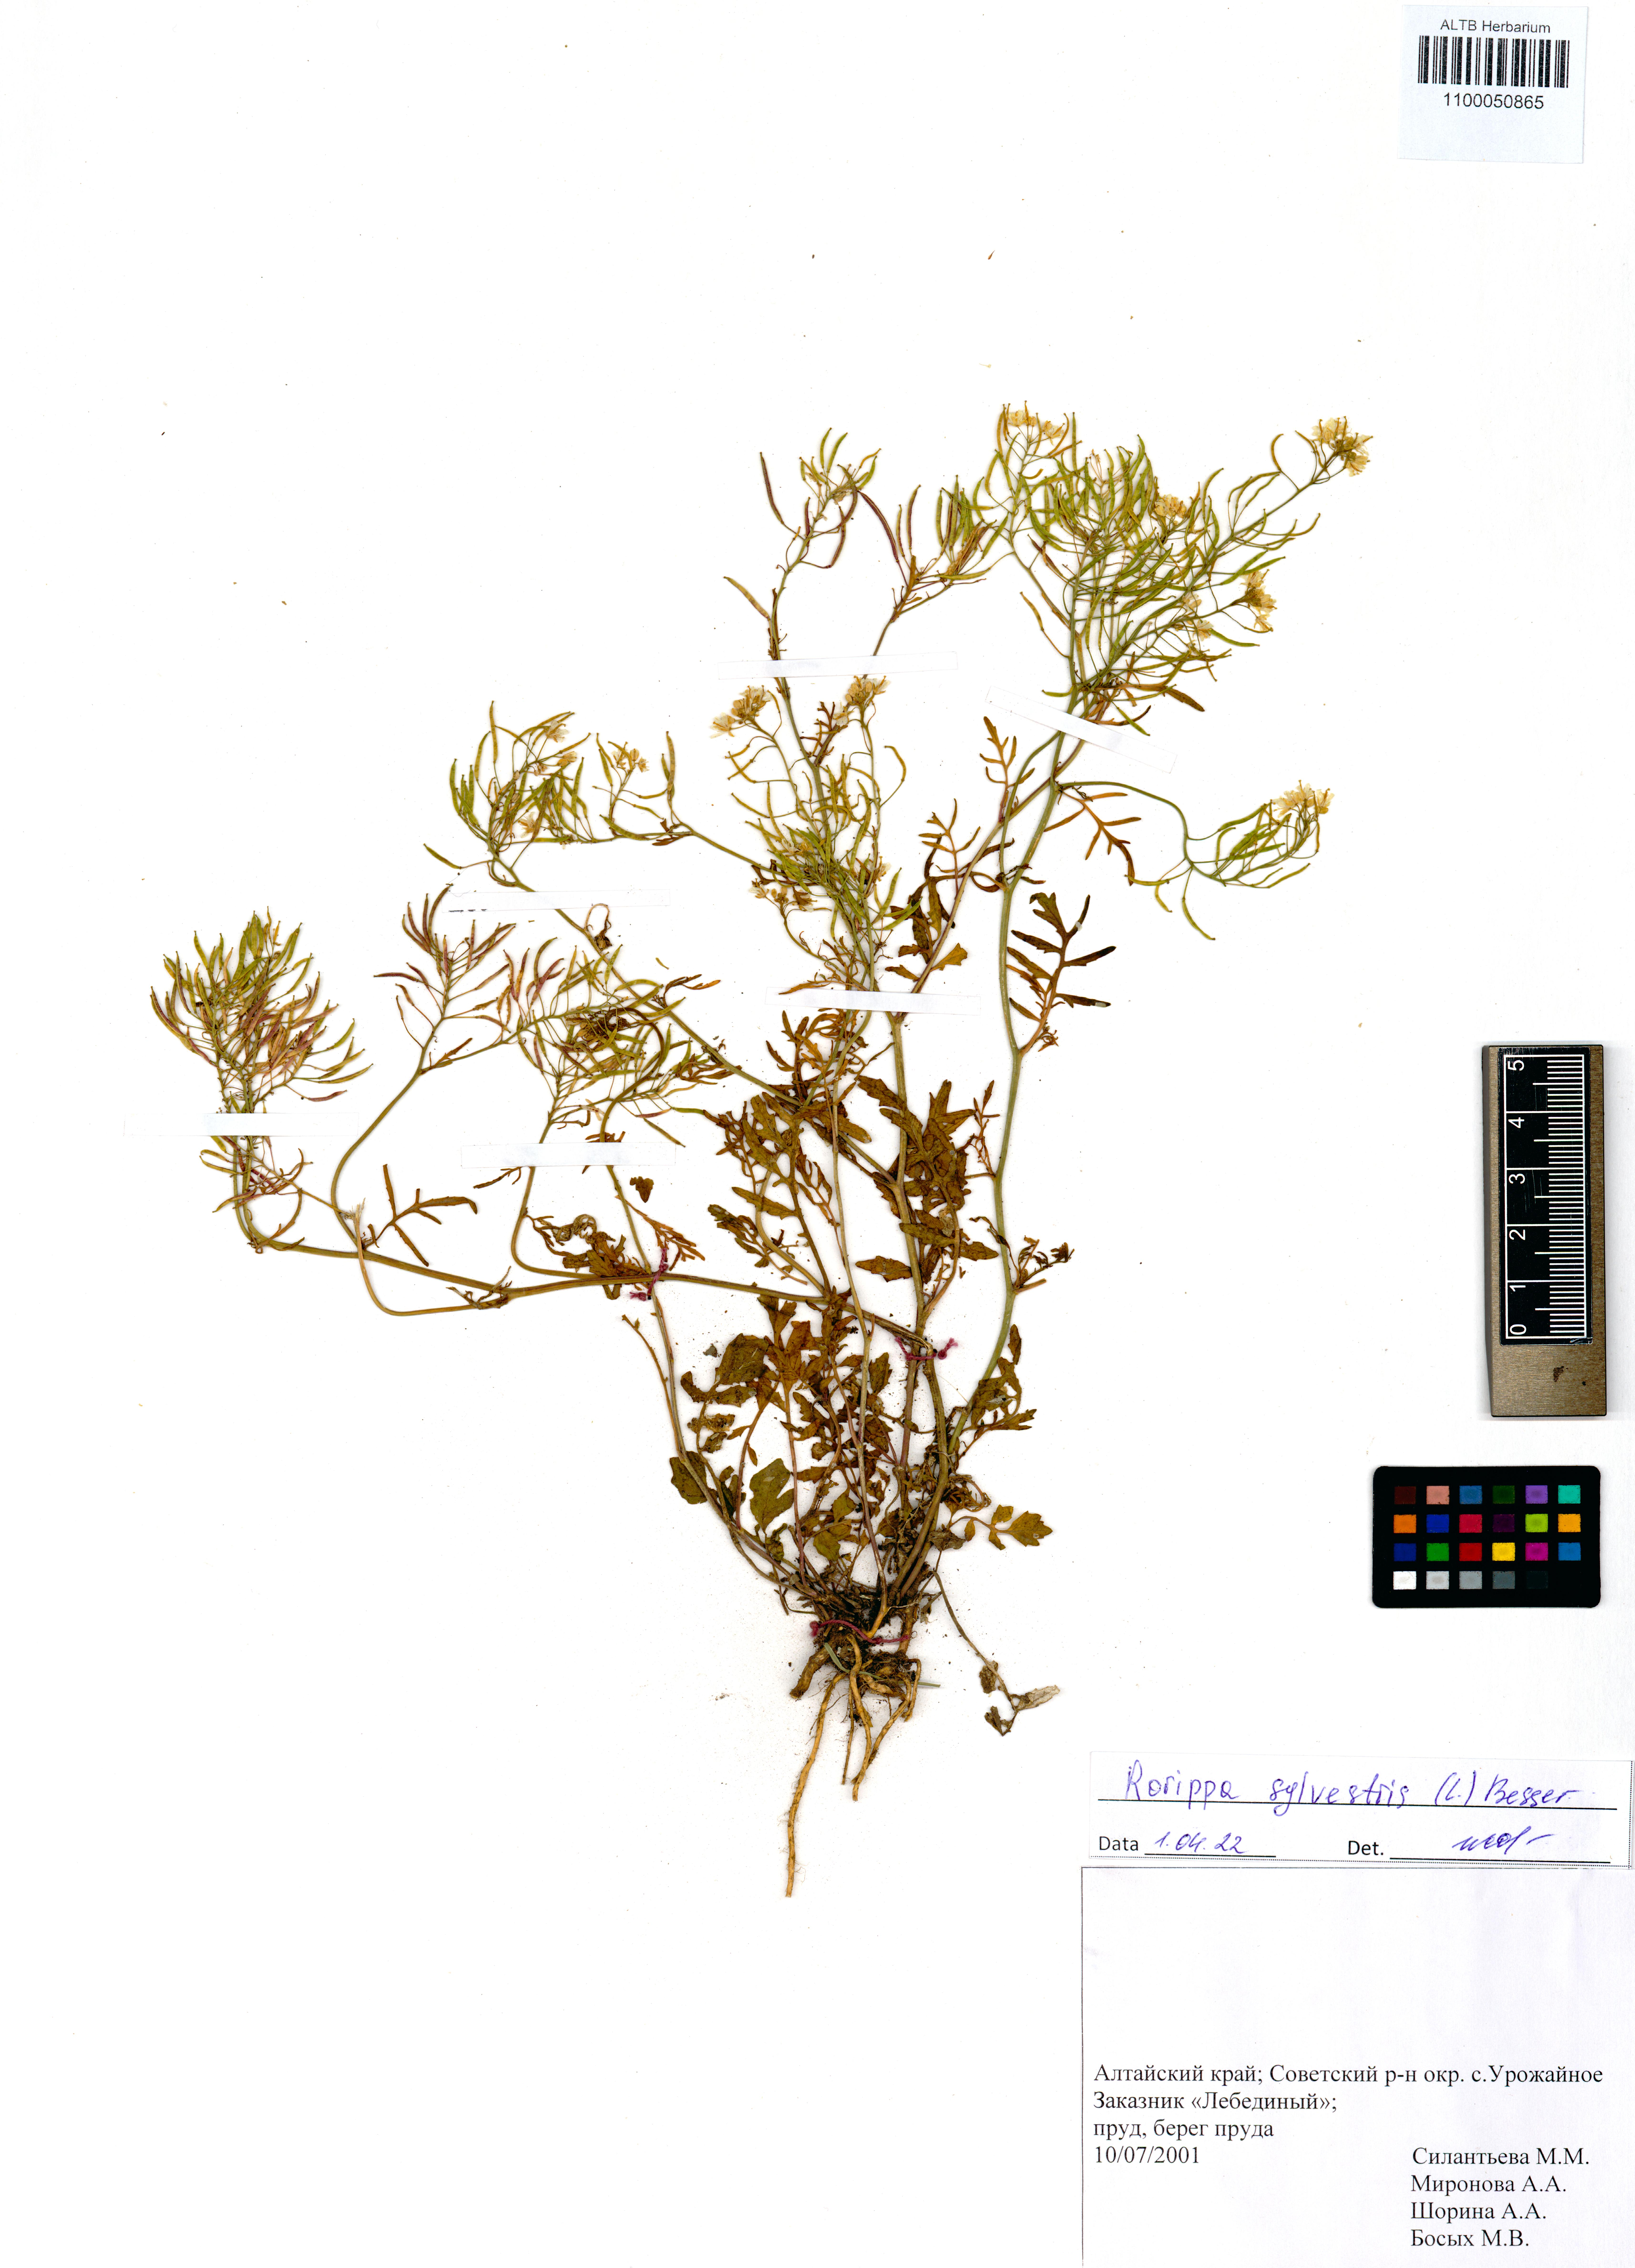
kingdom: Plantae
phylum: Tracheophyta
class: Magnoliopsida
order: Brassicales
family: Brassicaceae
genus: Rorippa
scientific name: Rorippa sylvestris
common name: Creeping yellowcress
